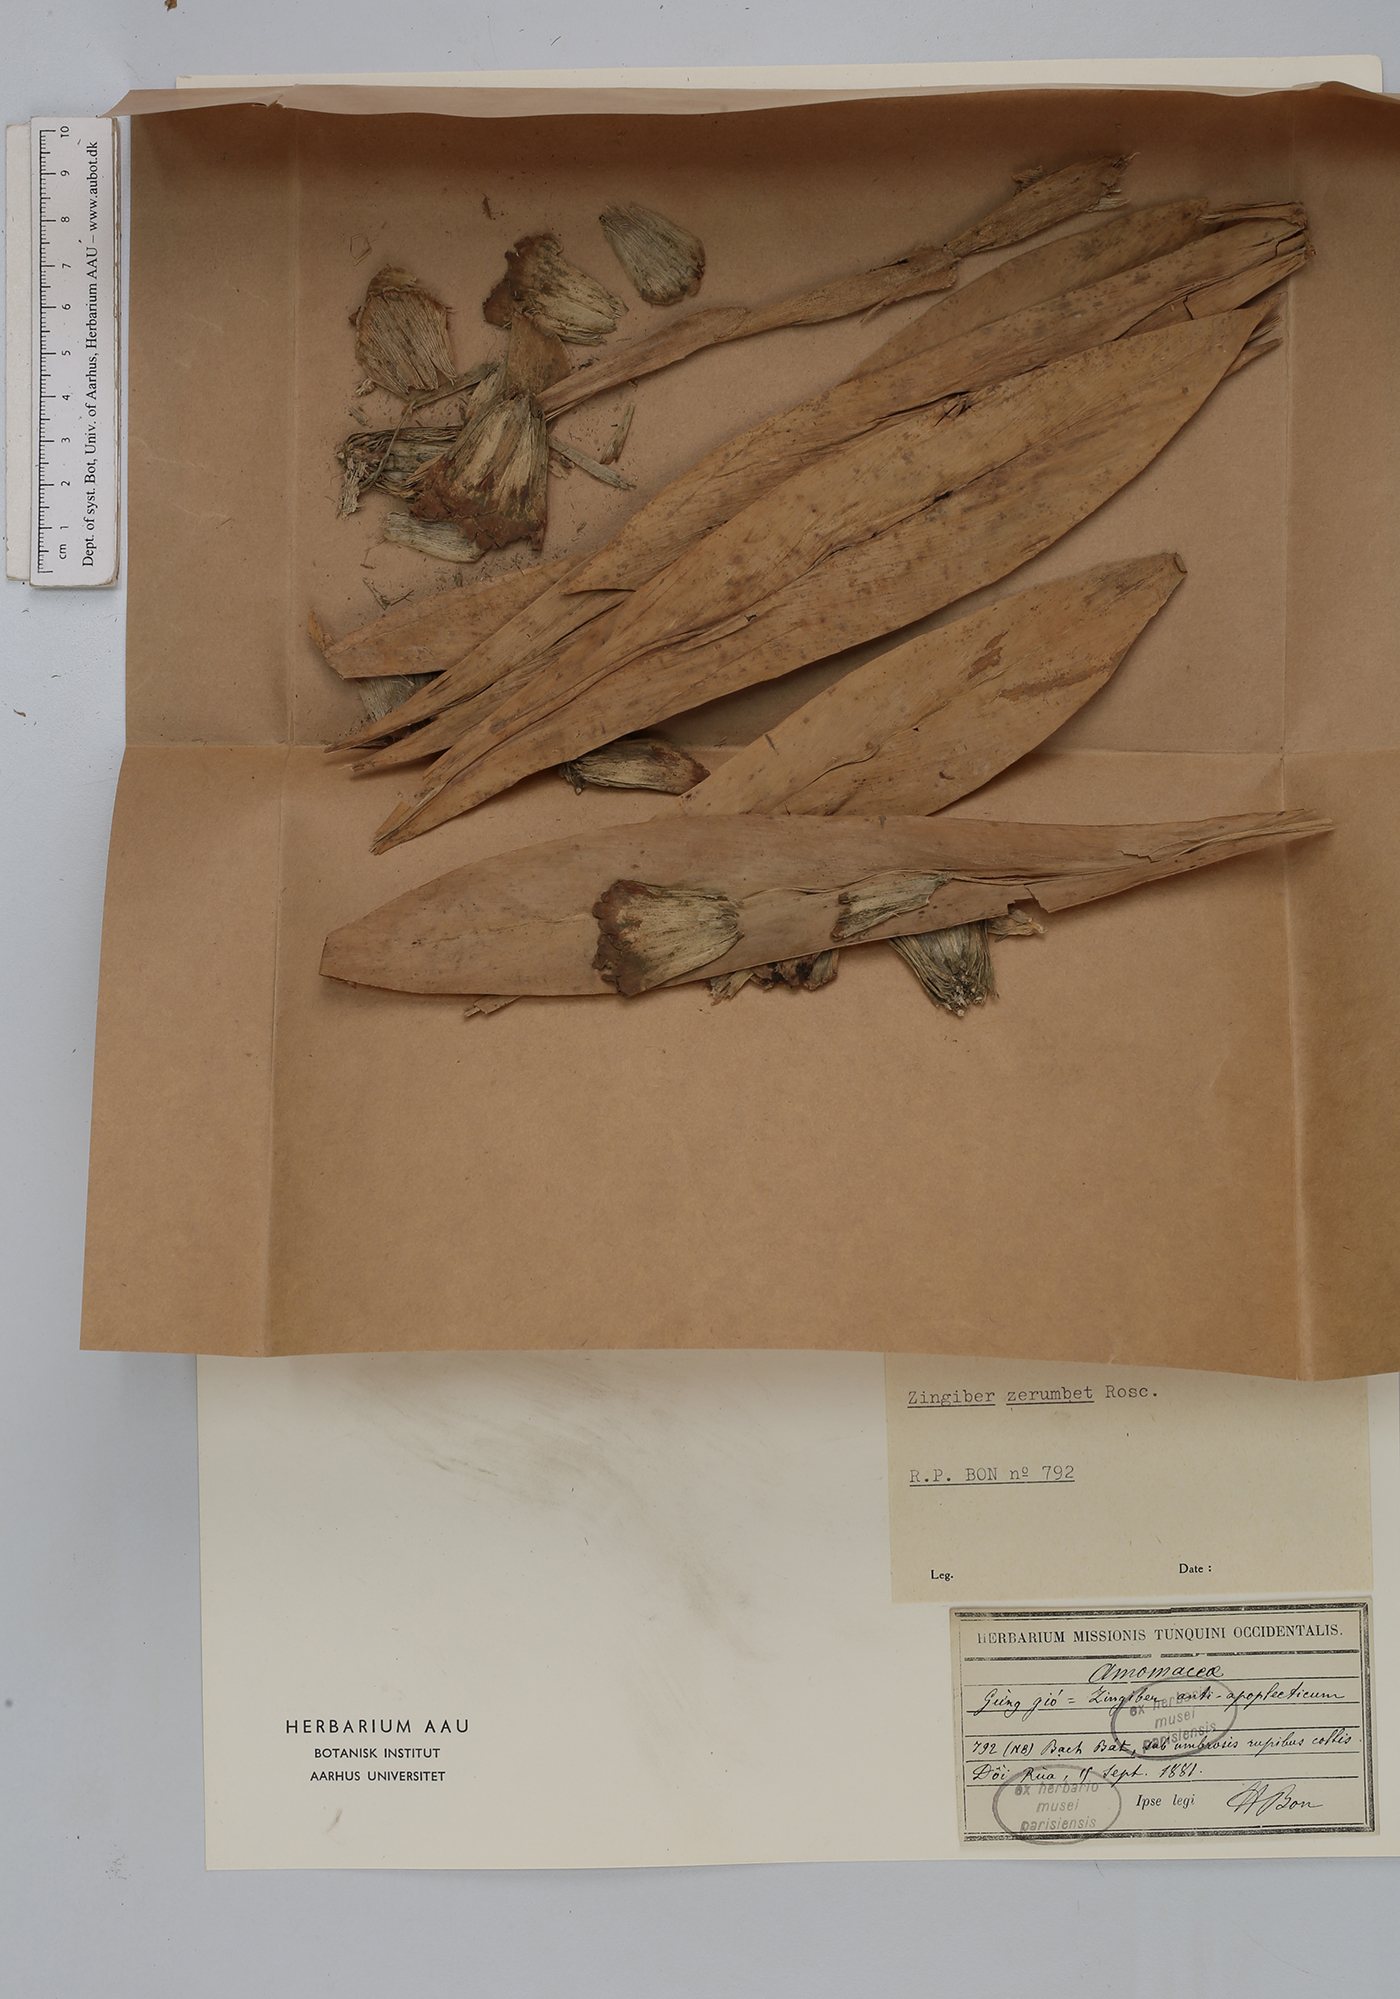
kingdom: Plantae
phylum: Tracheophyta
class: Liliopsida
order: Zingiberales
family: Zingiberaceae
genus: Zingiber
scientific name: Zingiber zerumbet
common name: Bitter ginger
